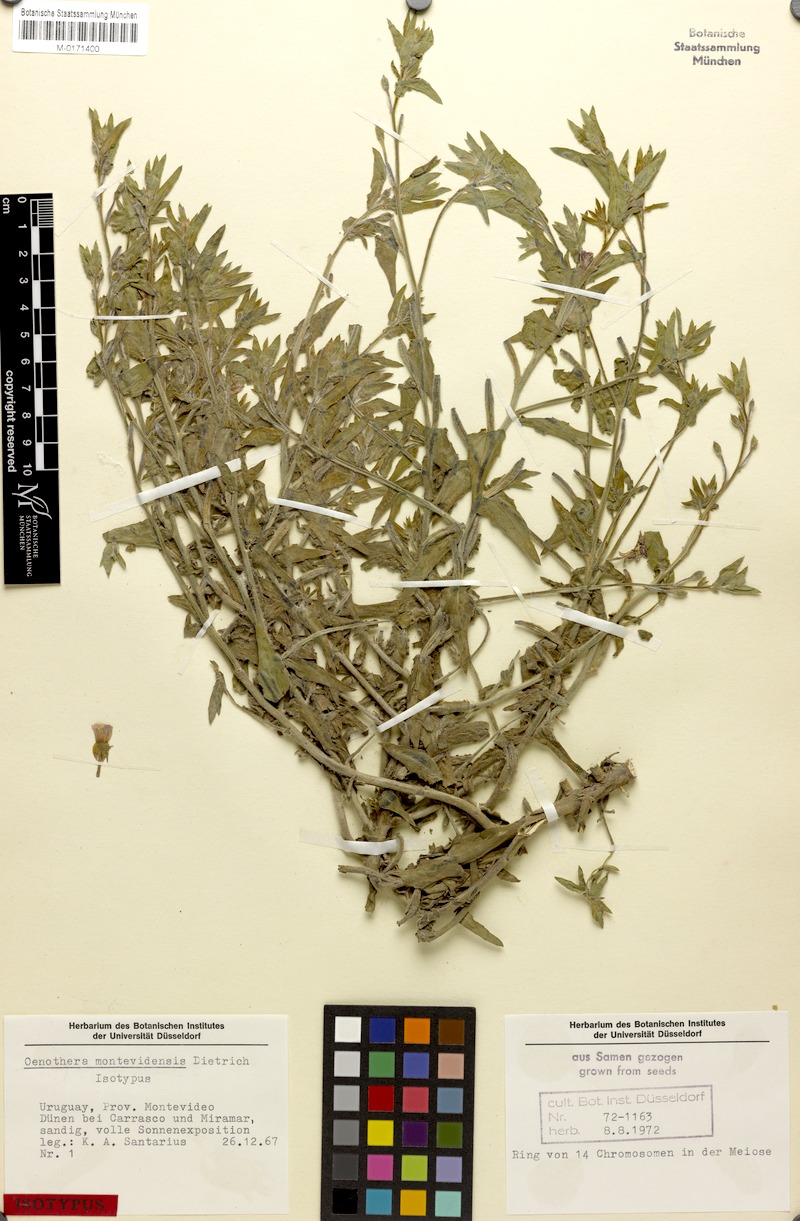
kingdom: Plantae
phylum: Tracheophyta
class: Magnoliopsida
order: Myrtales
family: Onagraceae
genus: Oenothera
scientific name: Oenothera montevidensis
